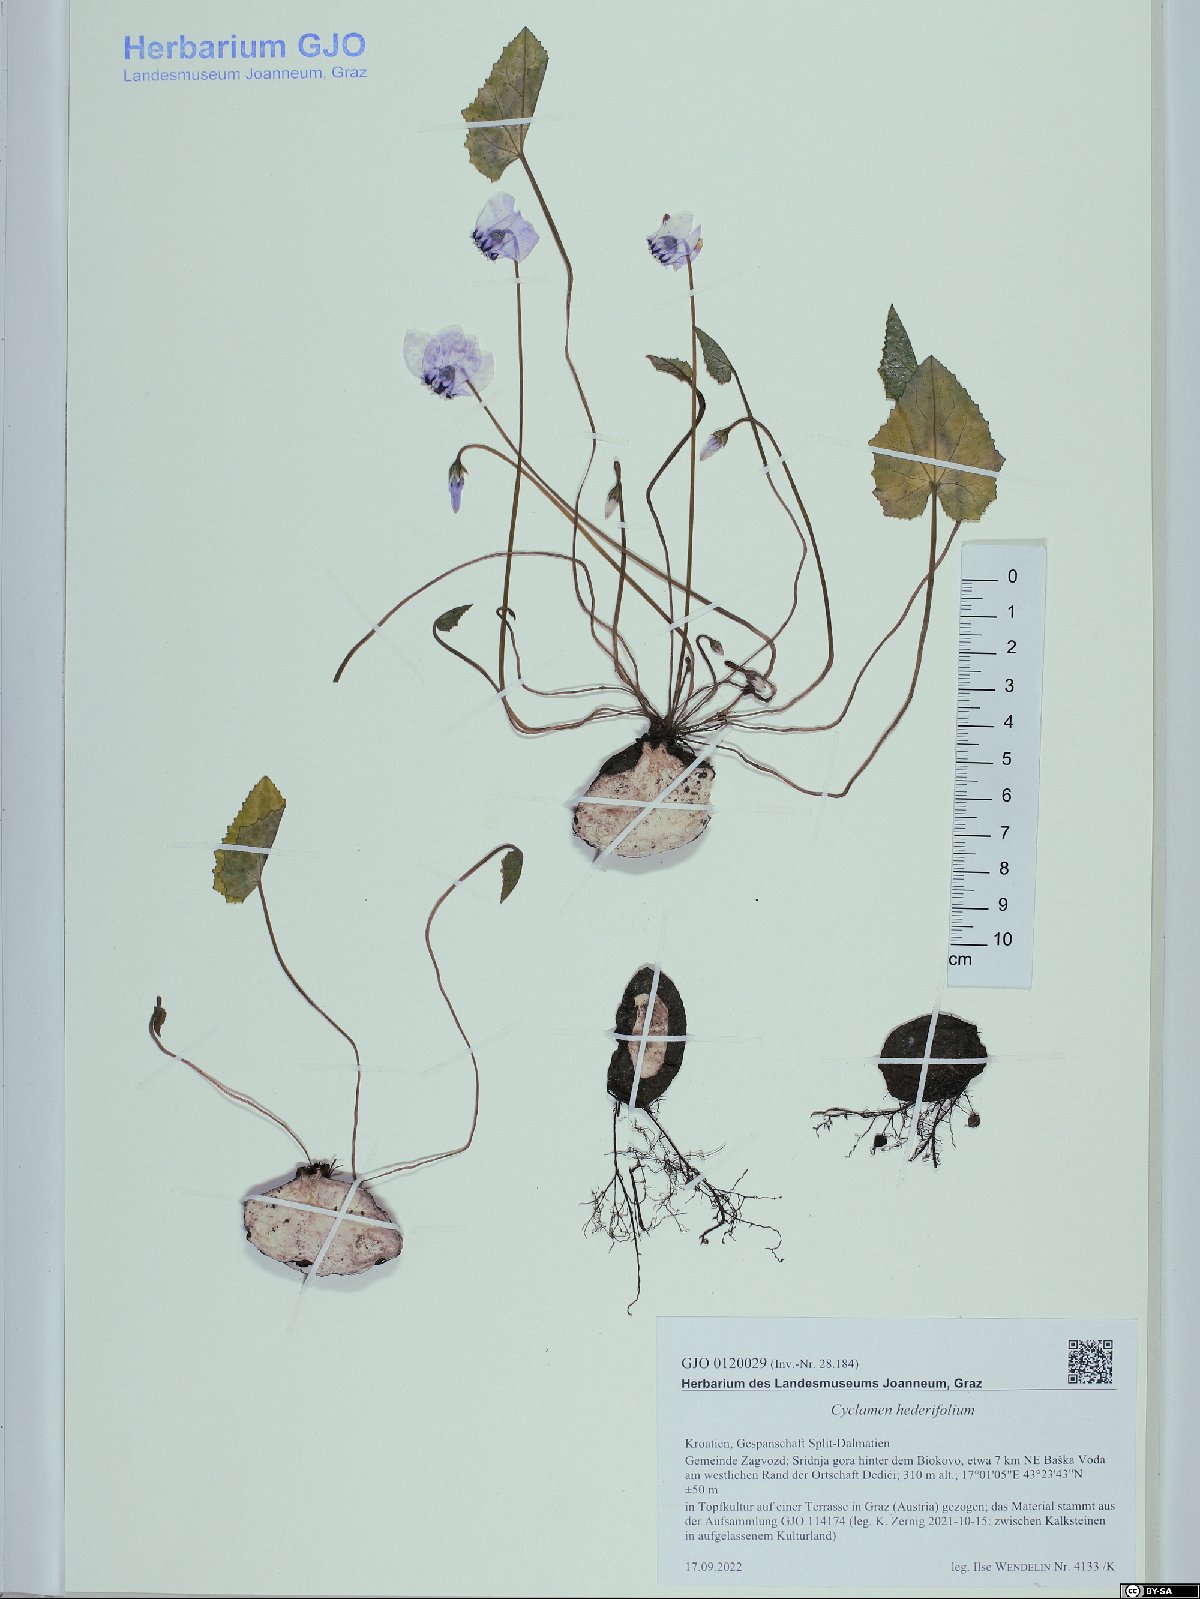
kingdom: Plantae
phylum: Tracheophyta
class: Magnoliopsida
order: Ericales
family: Primulaceae
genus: Cyclamen
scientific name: Cyclamen hederifolium
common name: Sowbread
